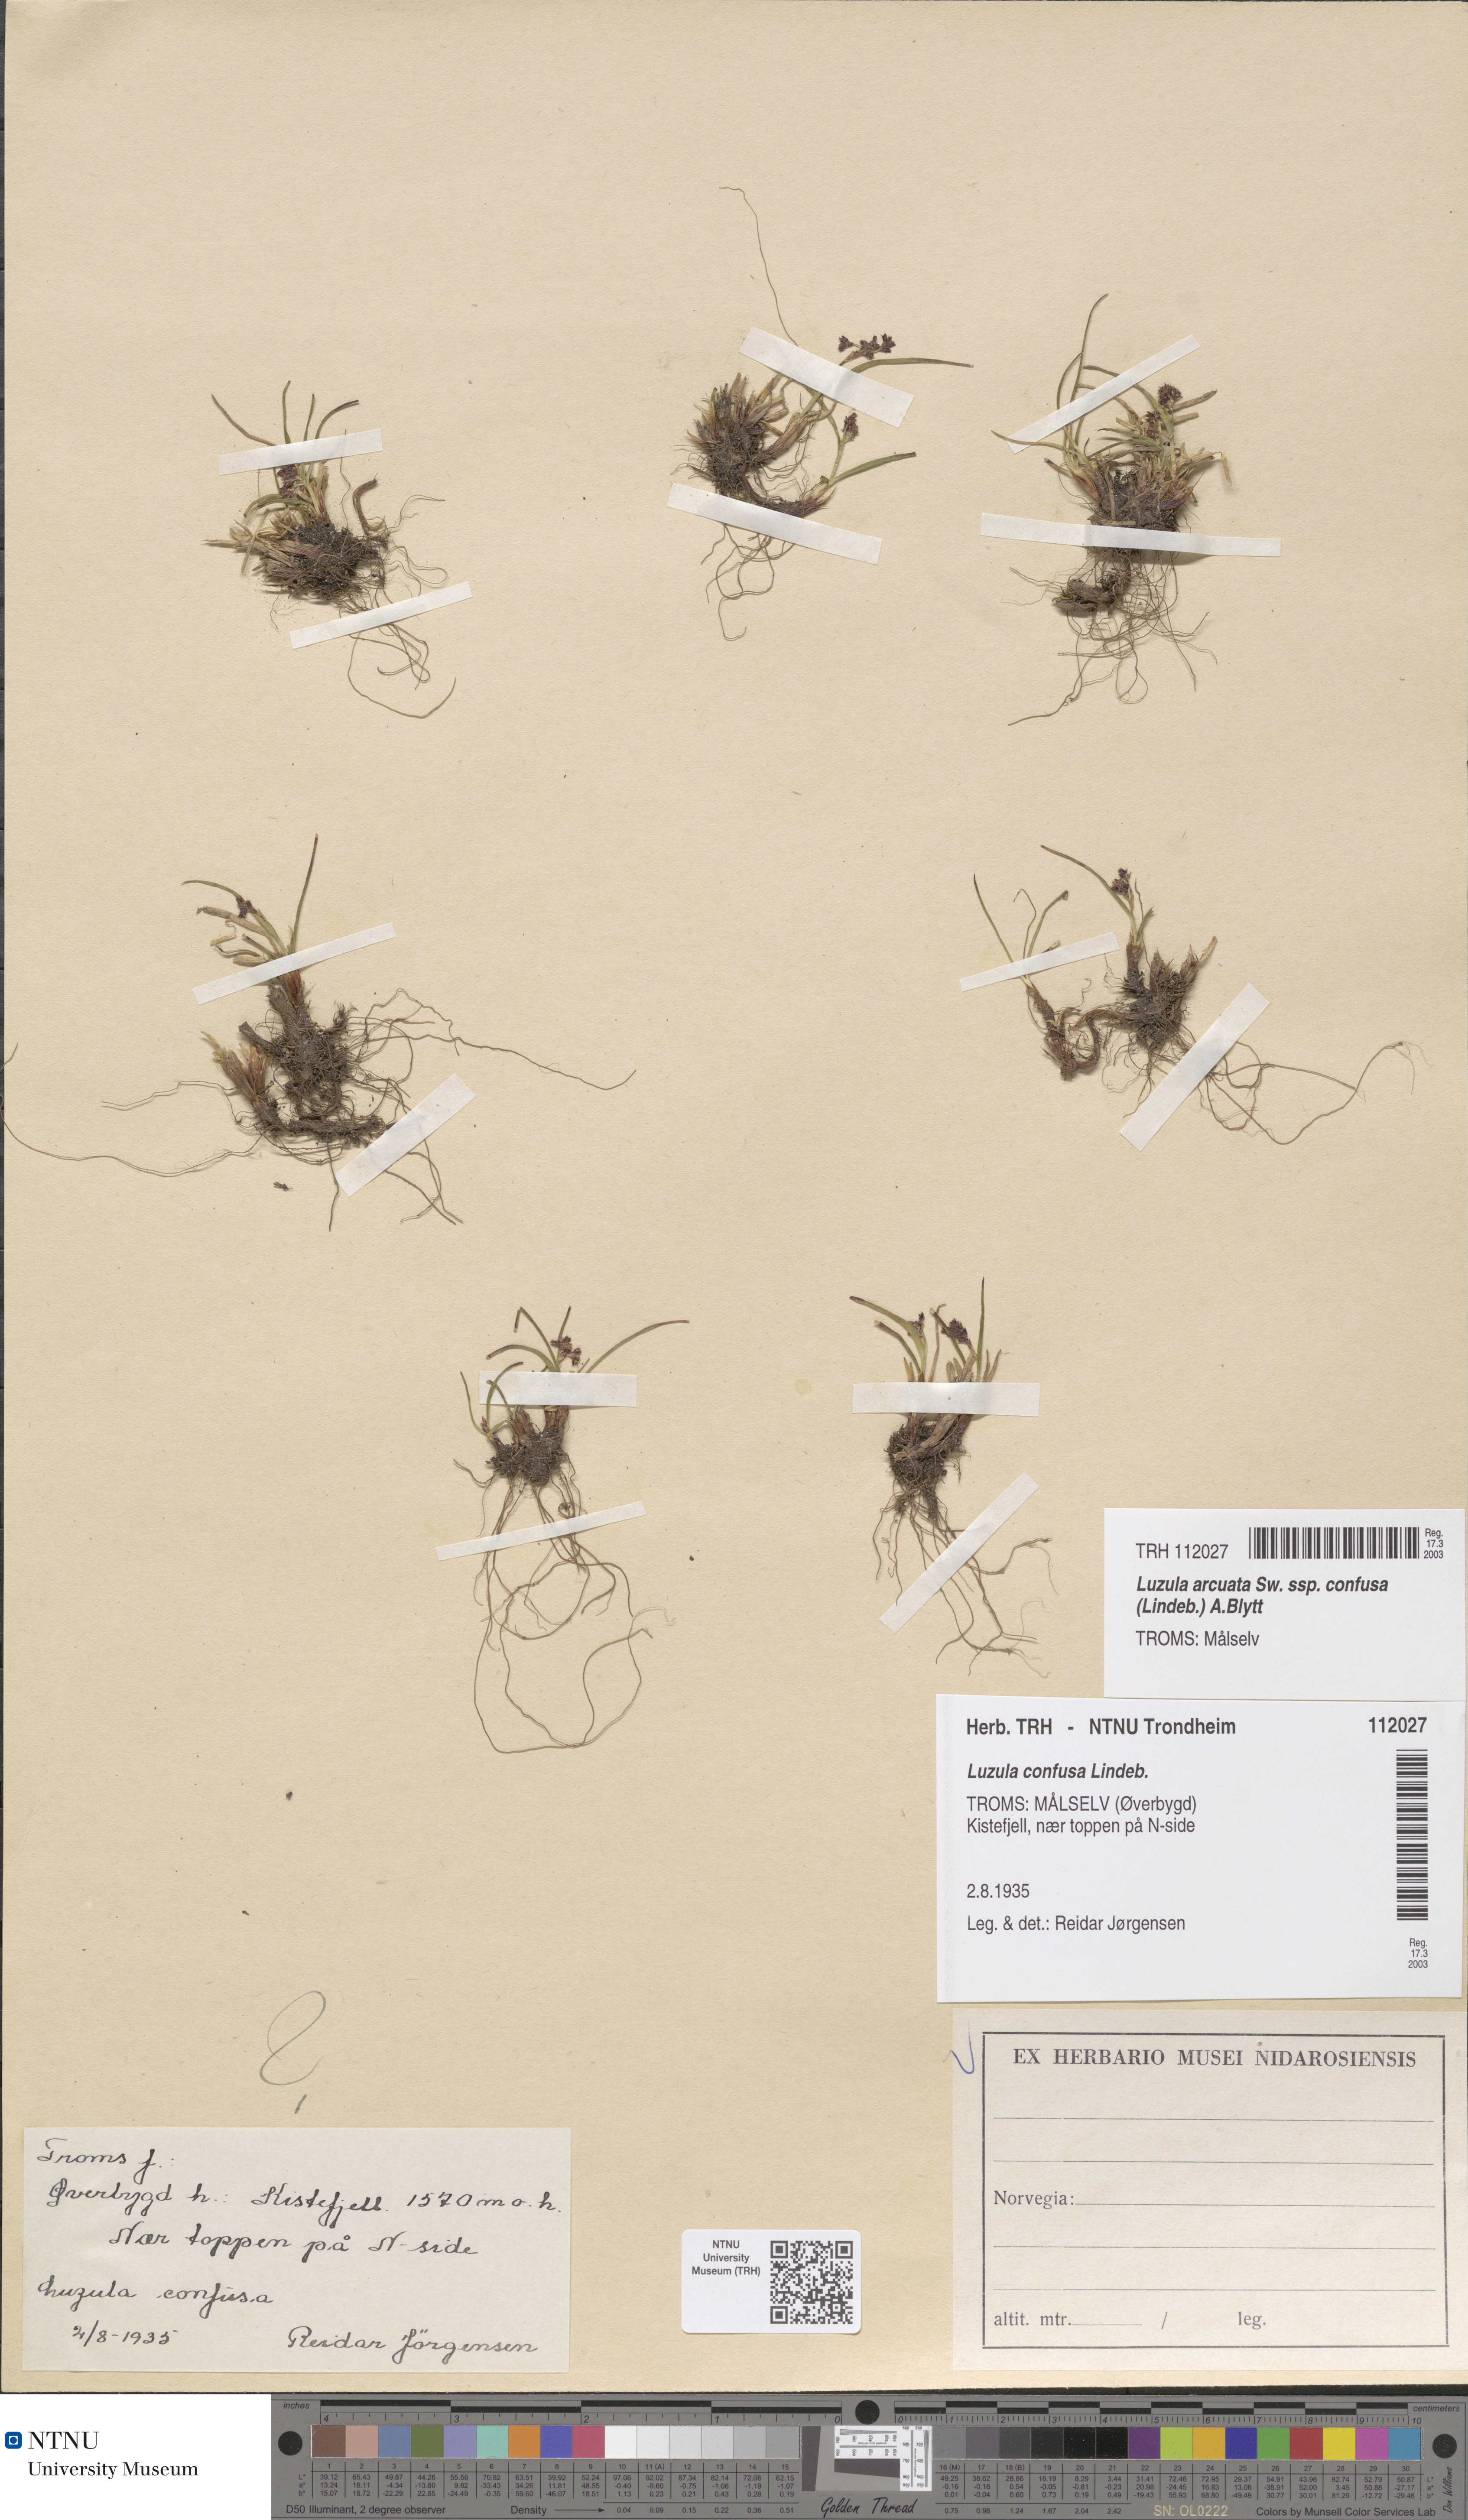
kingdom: Plantae
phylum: Tracheophyta
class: Liliopsida
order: Poales
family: Juncaceae
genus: Luzula
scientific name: Luzula confusa
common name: Northern wood rush
